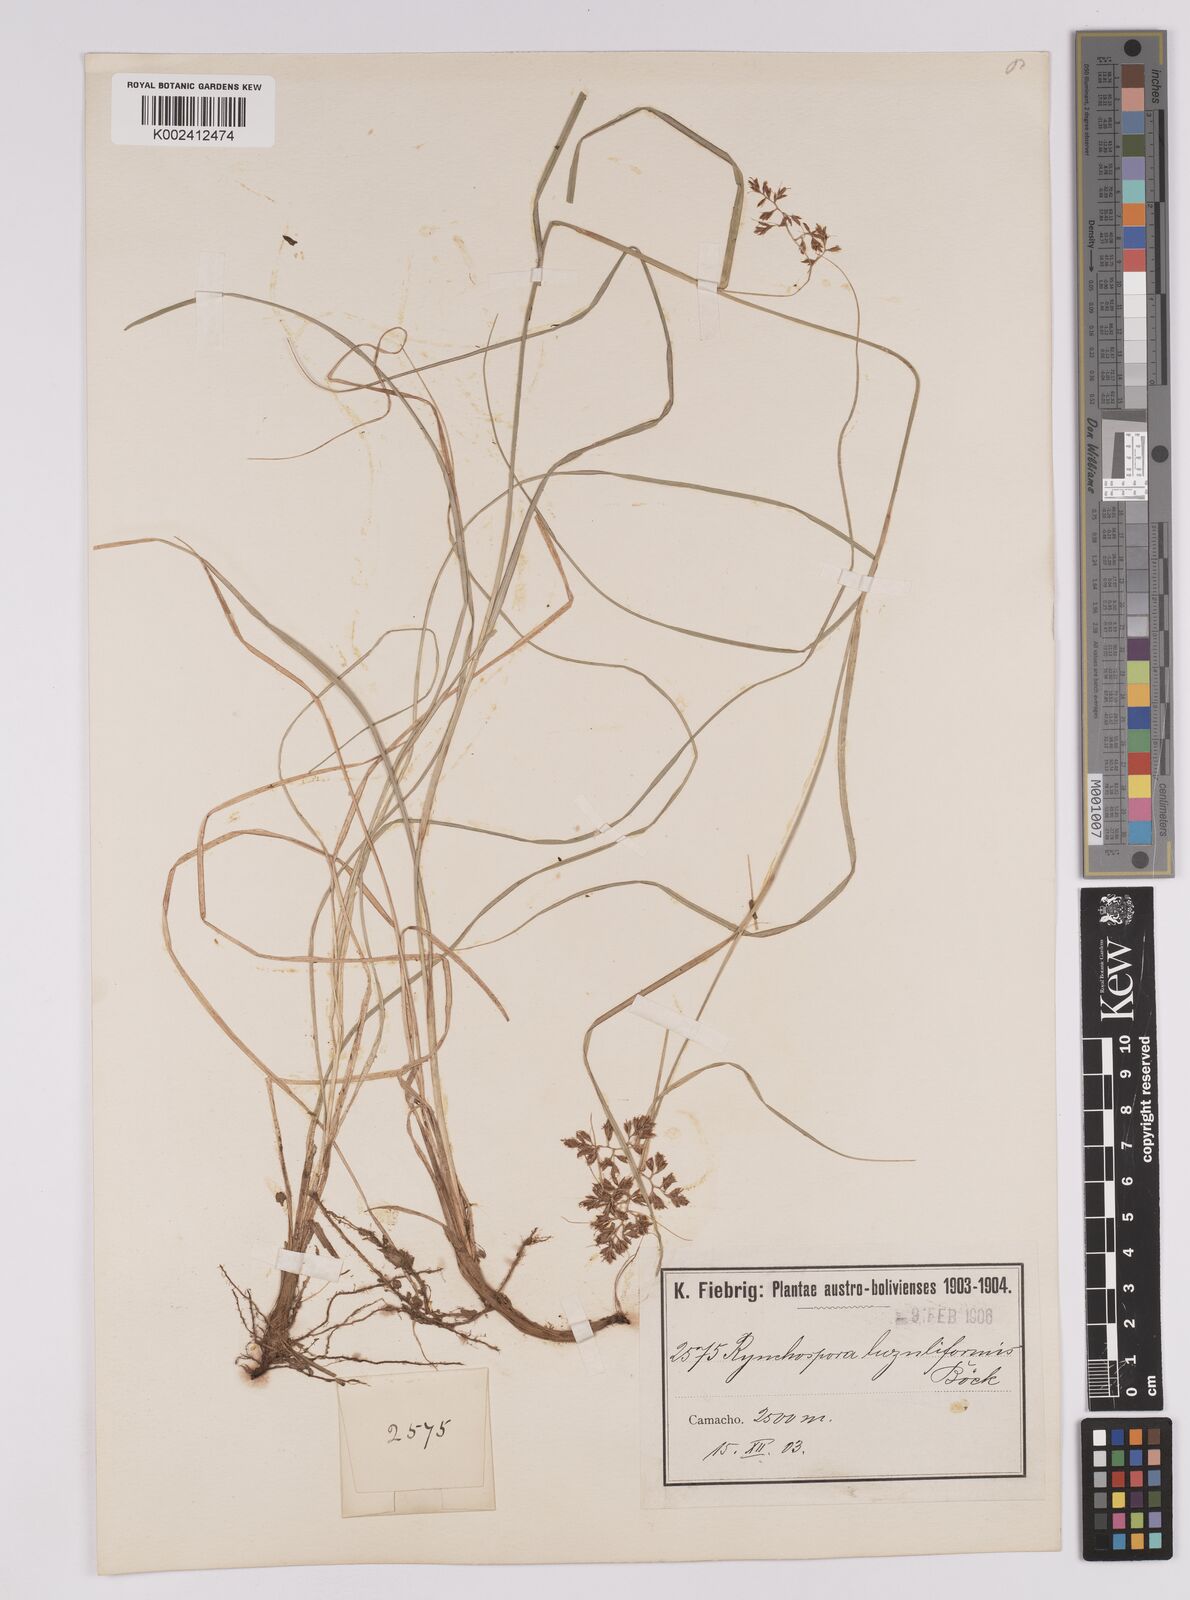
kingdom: Plantae
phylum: Tracheophyta
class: Liliopsida
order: Poales
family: Cyperaceae
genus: Rhynchospora
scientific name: Rhynchospora megapotamica
